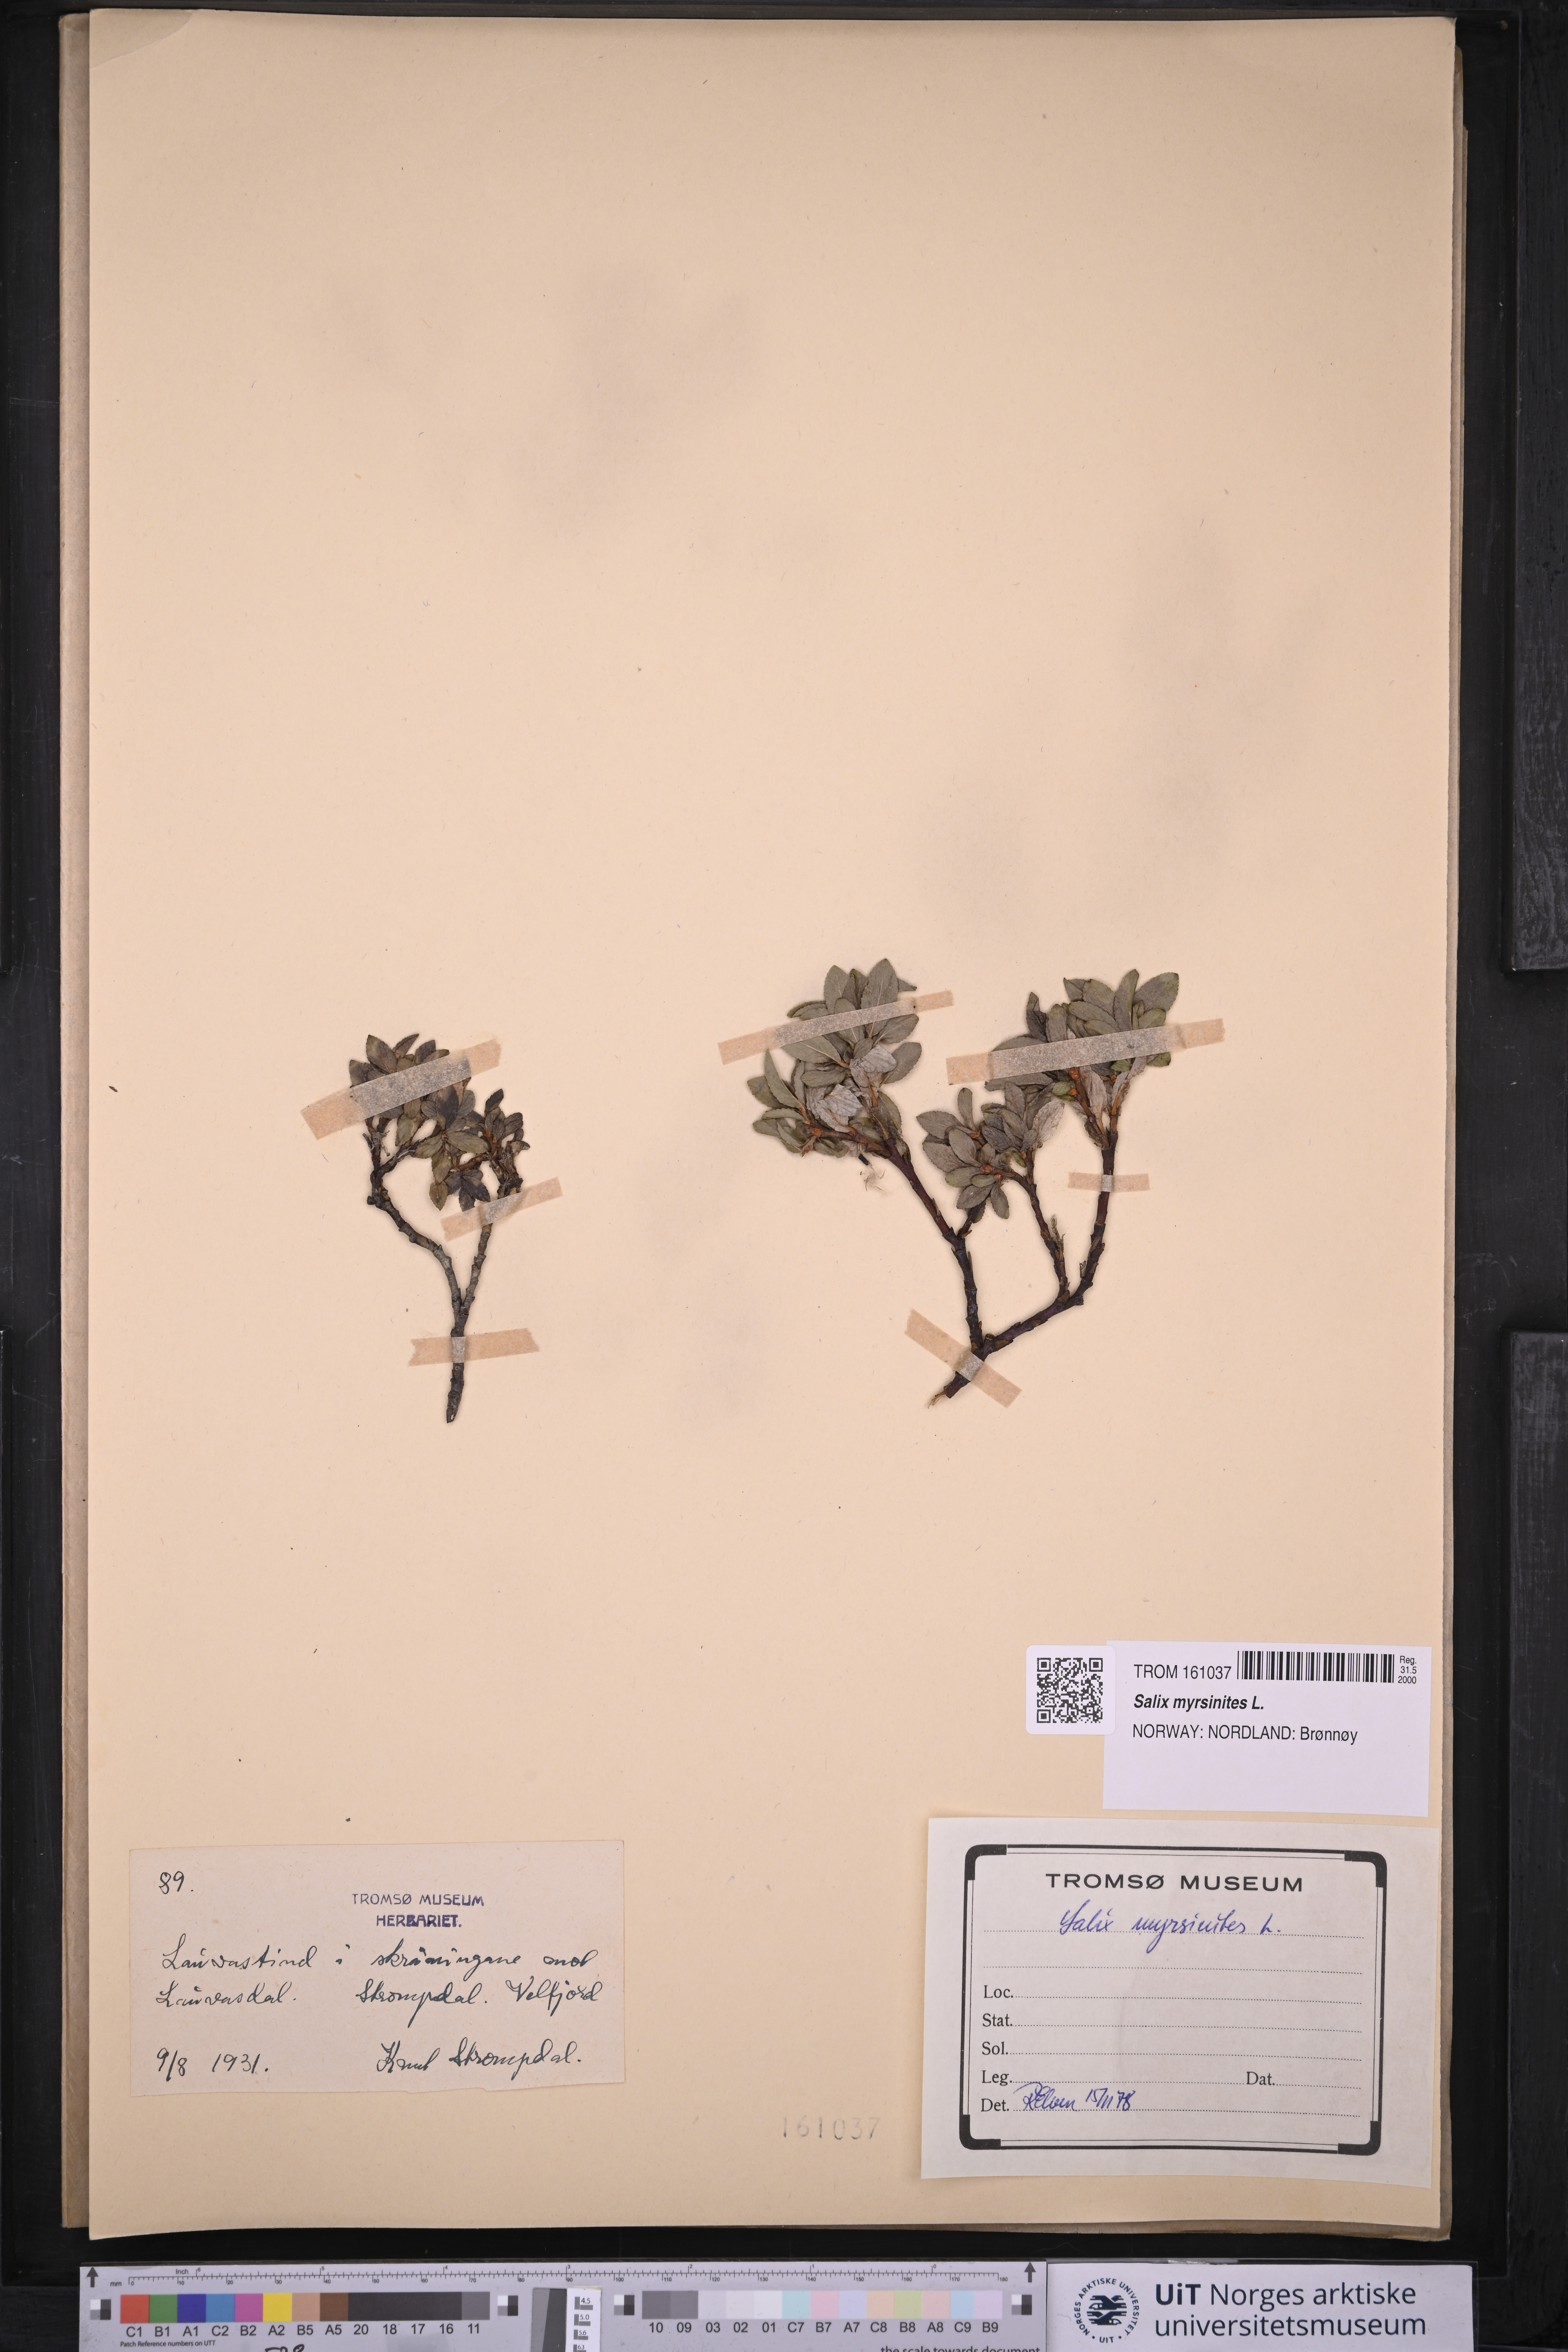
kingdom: Plantae
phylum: Tracheophyta
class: Magnoliopsida
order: Malpighiales
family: Salicaceae
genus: Salix
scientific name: Salix myrsinites
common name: Myrtle willow
